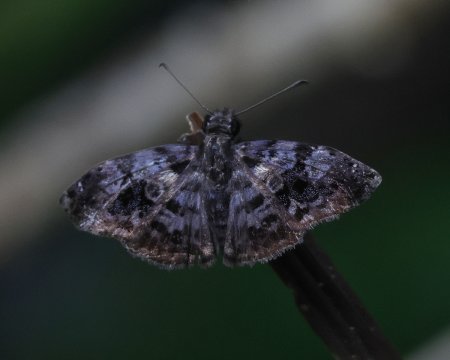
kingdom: Animalia
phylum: Arthropoda
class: Insecta
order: Lepidoptera
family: Hesperiidae
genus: Gorgythion
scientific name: Gorgythion begga
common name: Variegated Skipper
